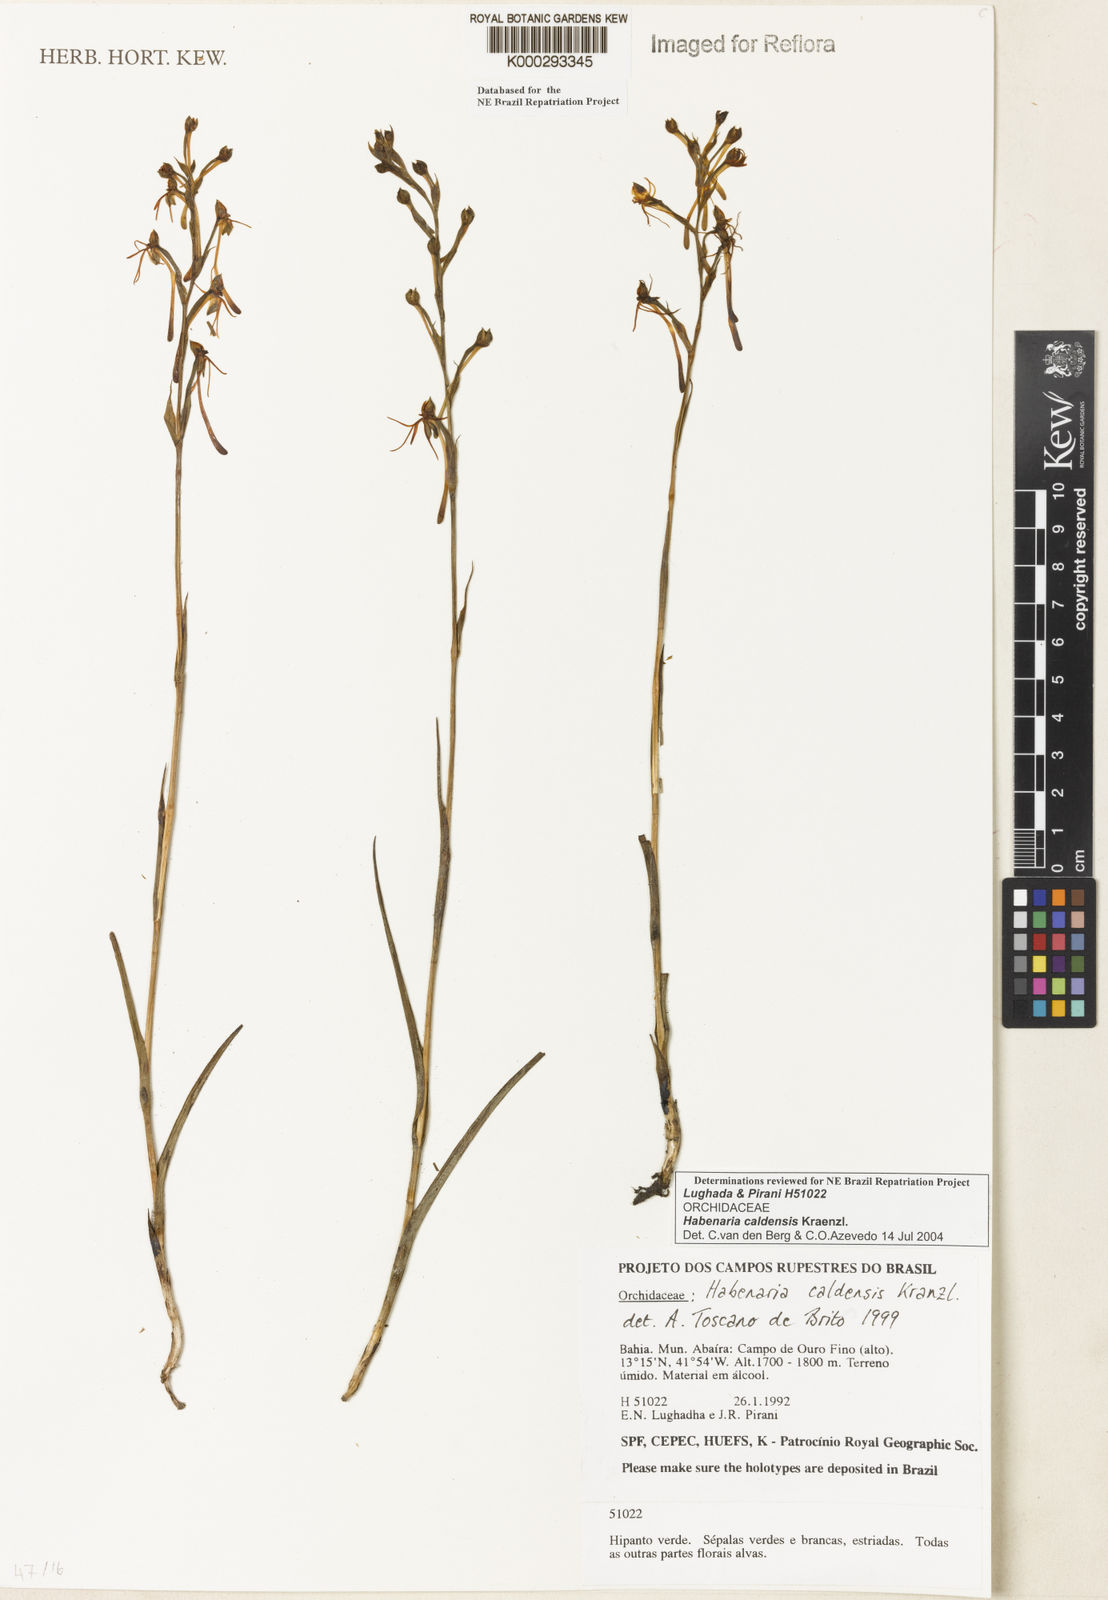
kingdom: Plantae
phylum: Tracheophyta
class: Liliopsida
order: Asparagales
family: Orchidaceae
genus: Habenaria
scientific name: Habenaria caldensis
